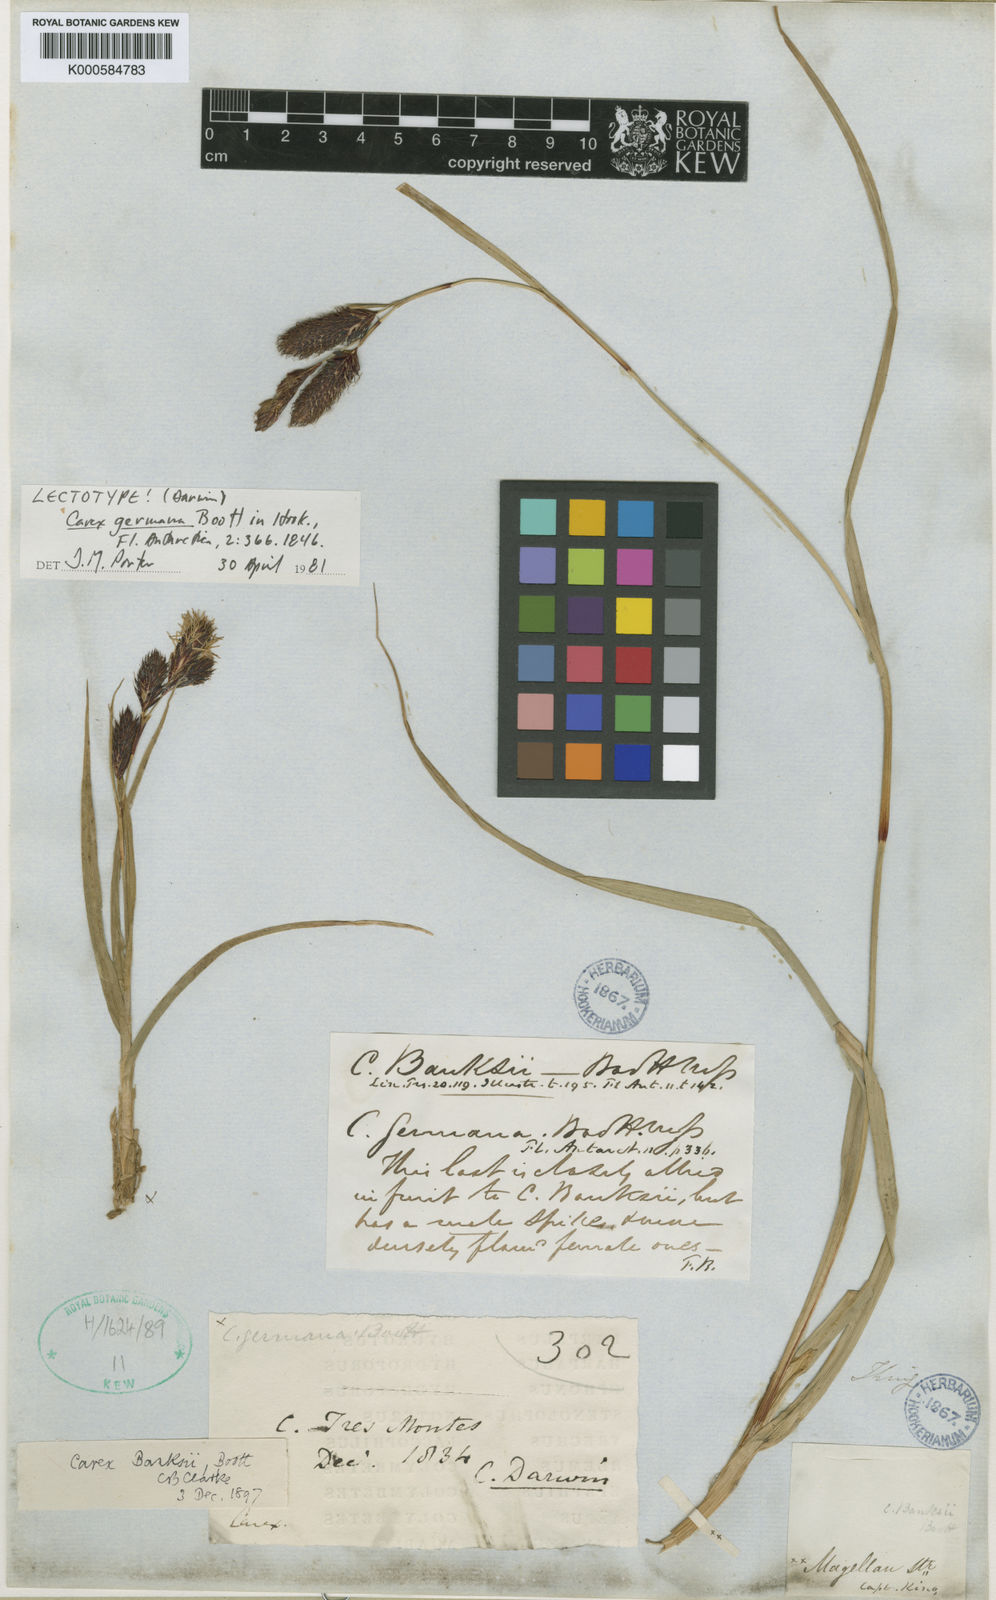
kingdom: Plantae
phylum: Tracheophyta
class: Liliopsida
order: Poales
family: Cyperaceae
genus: Carex
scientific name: Carex banksii
